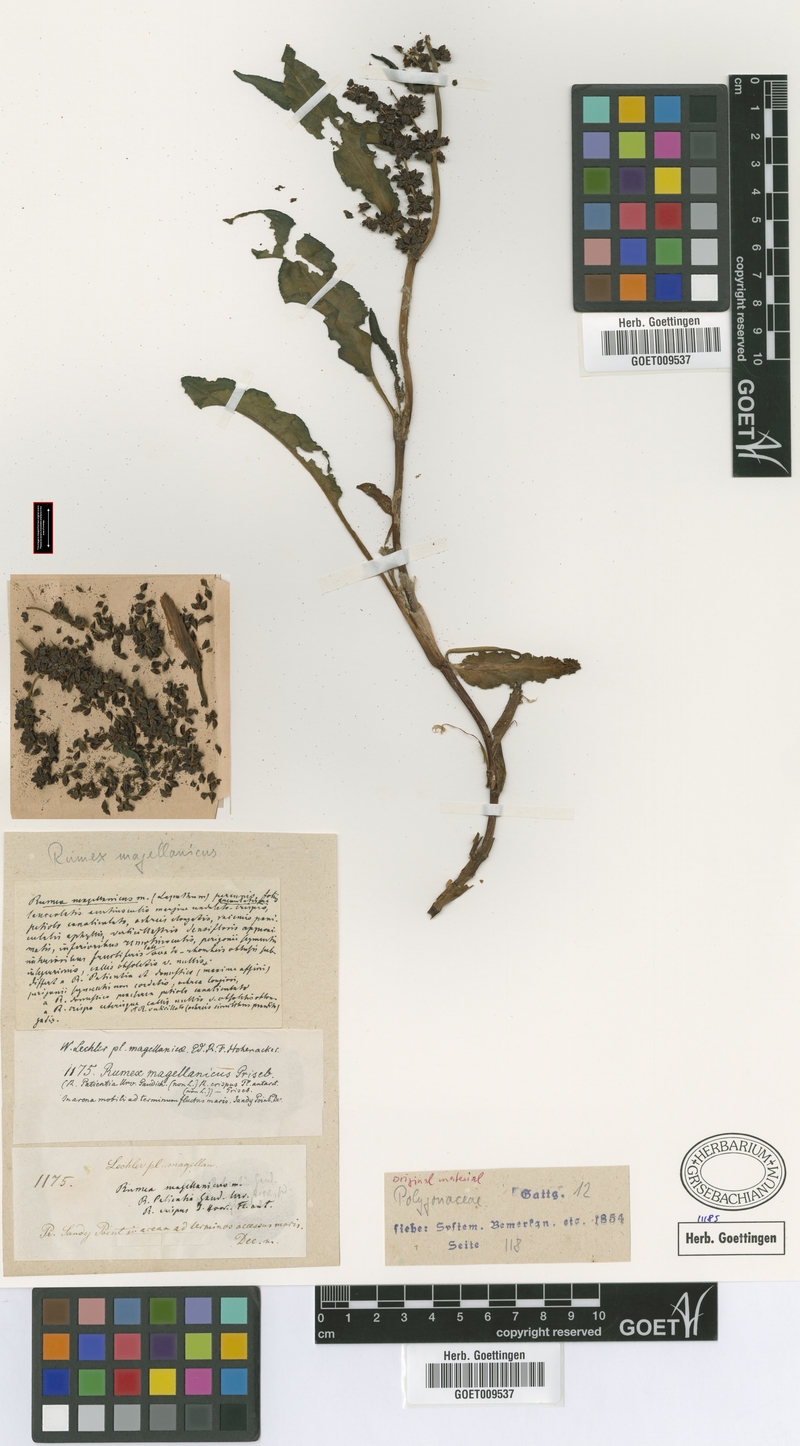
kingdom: Plantae
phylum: Tracheophyta
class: Magnoliopsida
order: Caryophyllales
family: Polygonaceae
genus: Rumex
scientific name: Rumex magellanicus
